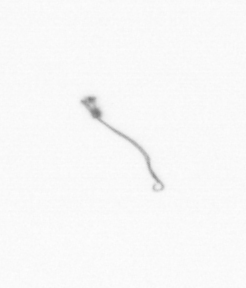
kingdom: Chromista
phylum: Ochrophyta
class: Bacillariophyceae
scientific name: Bacillariophyceae
